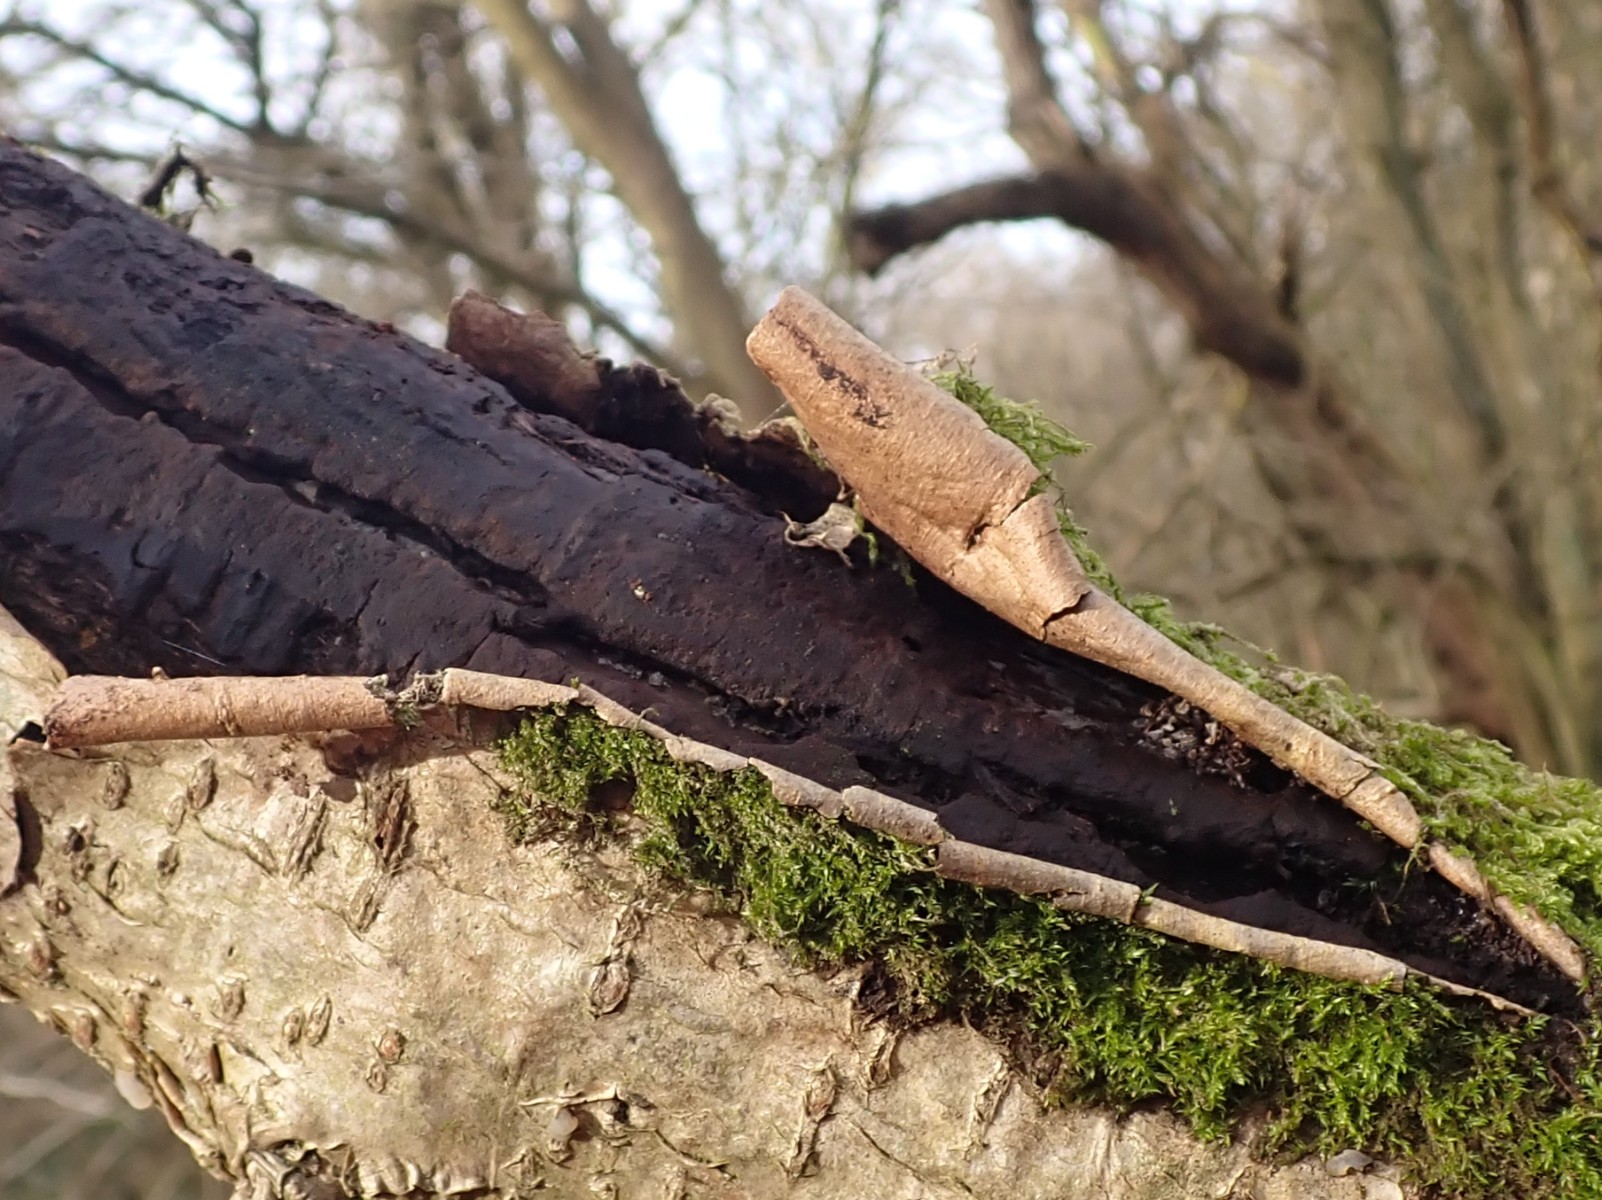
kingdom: Fungi
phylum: Ascomycota
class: Sordariomycetes
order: Xylariales
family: Diatrypaceae
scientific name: Diatrypaceae
